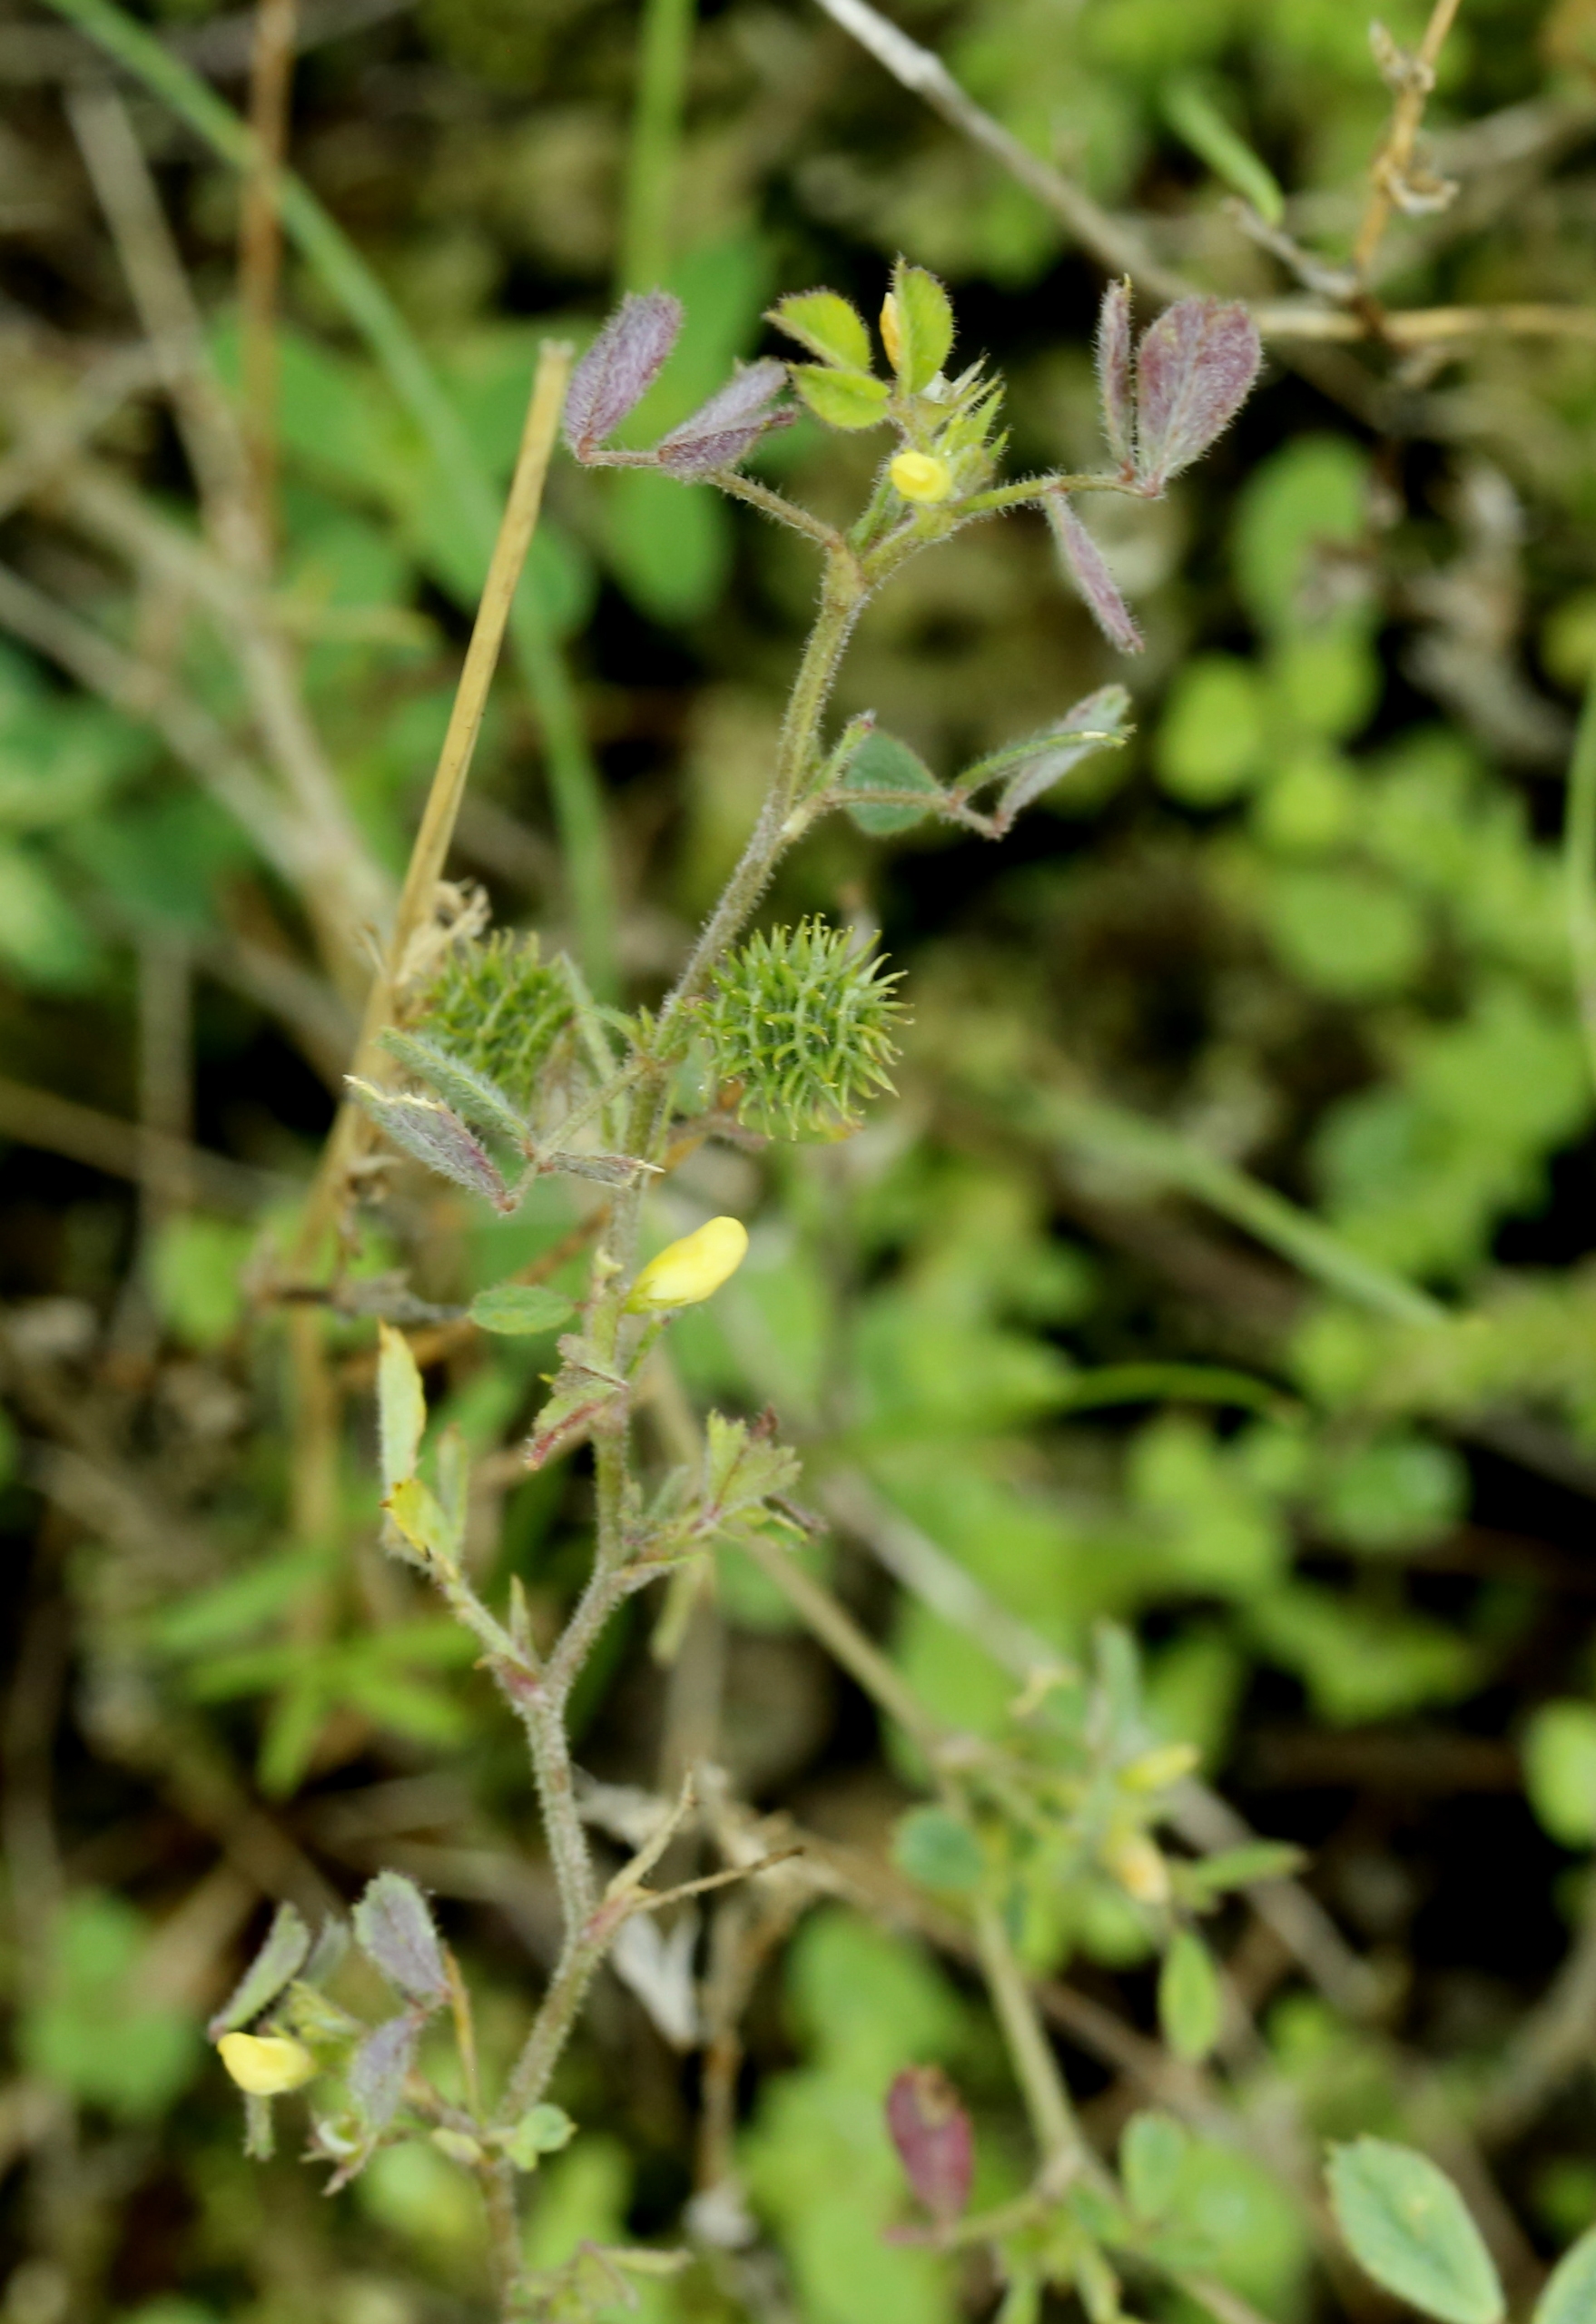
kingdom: Plantae
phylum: Tracheophyta
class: Magnoliopsida
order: Fabales
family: Fabaceae
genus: Medicago
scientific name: Medicago minima
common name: Liden sneglebælg
